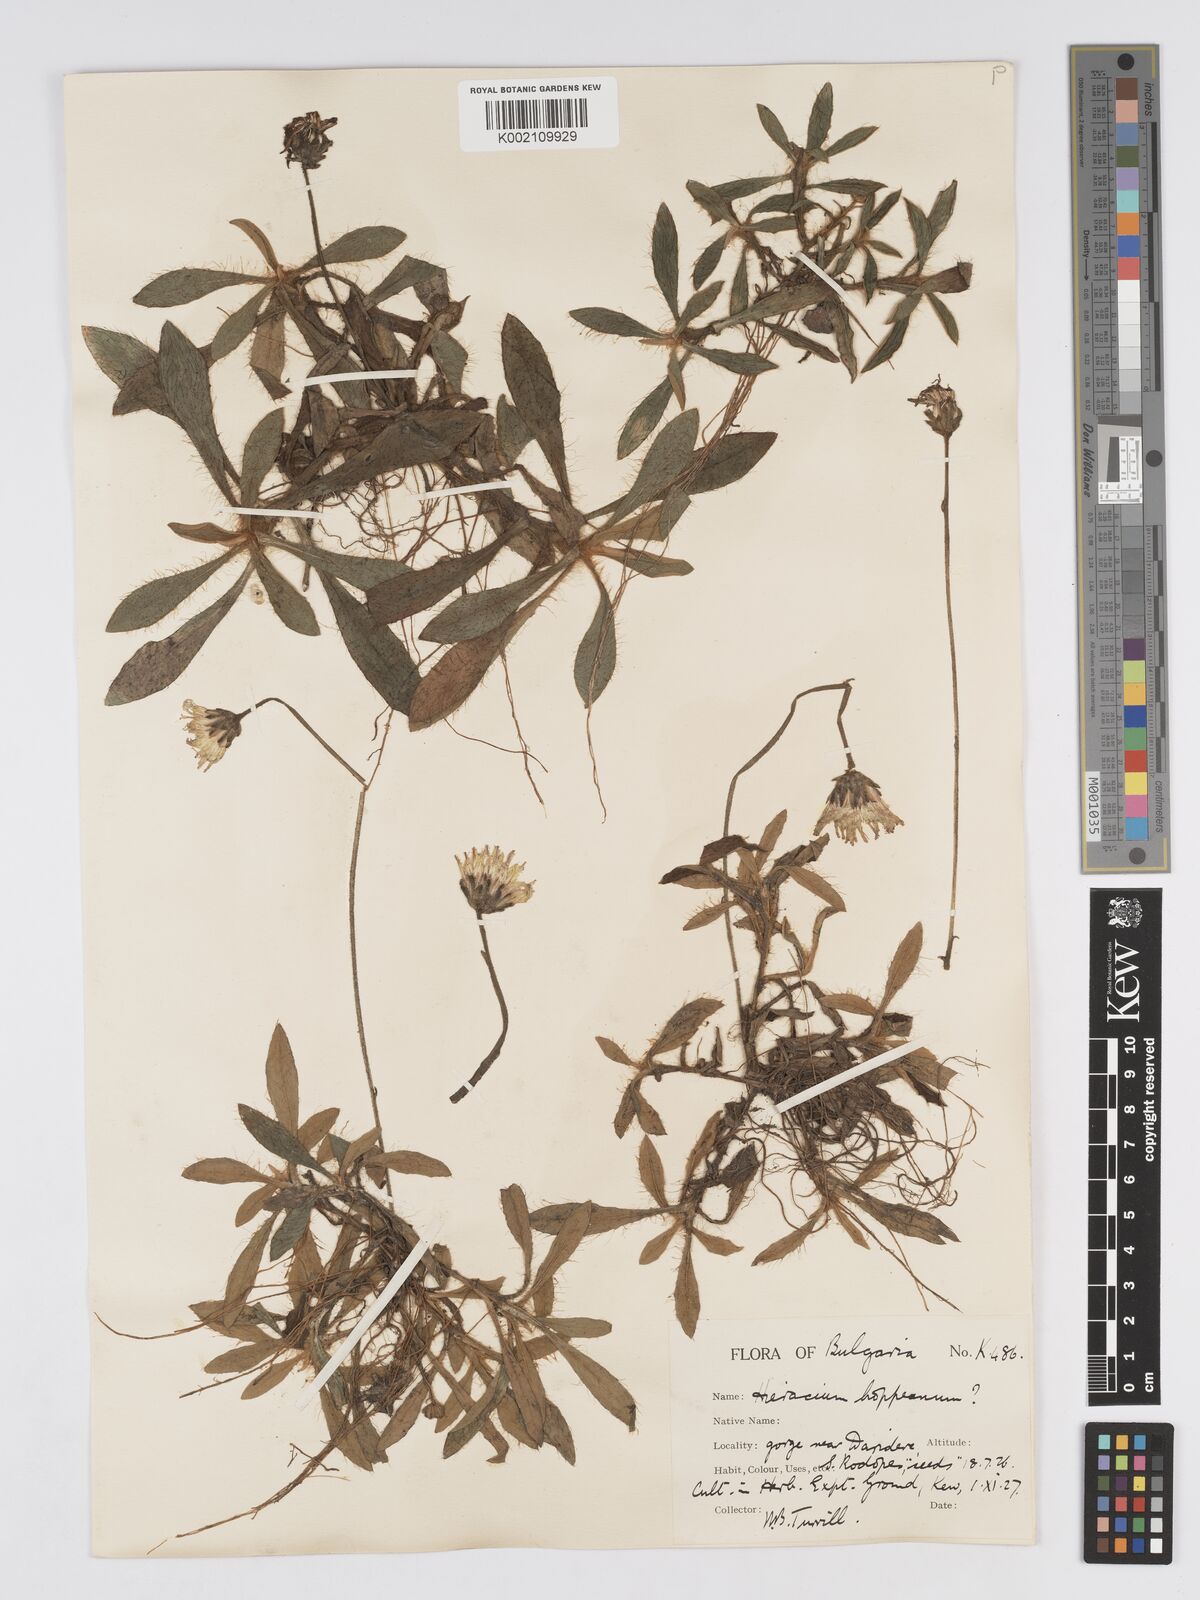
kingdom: Plantae
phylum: Tracheophyta
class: Magnoliopsida
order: Asterales
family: Asteraceae
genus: Pilosella
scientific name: Pilosella hoppeana
